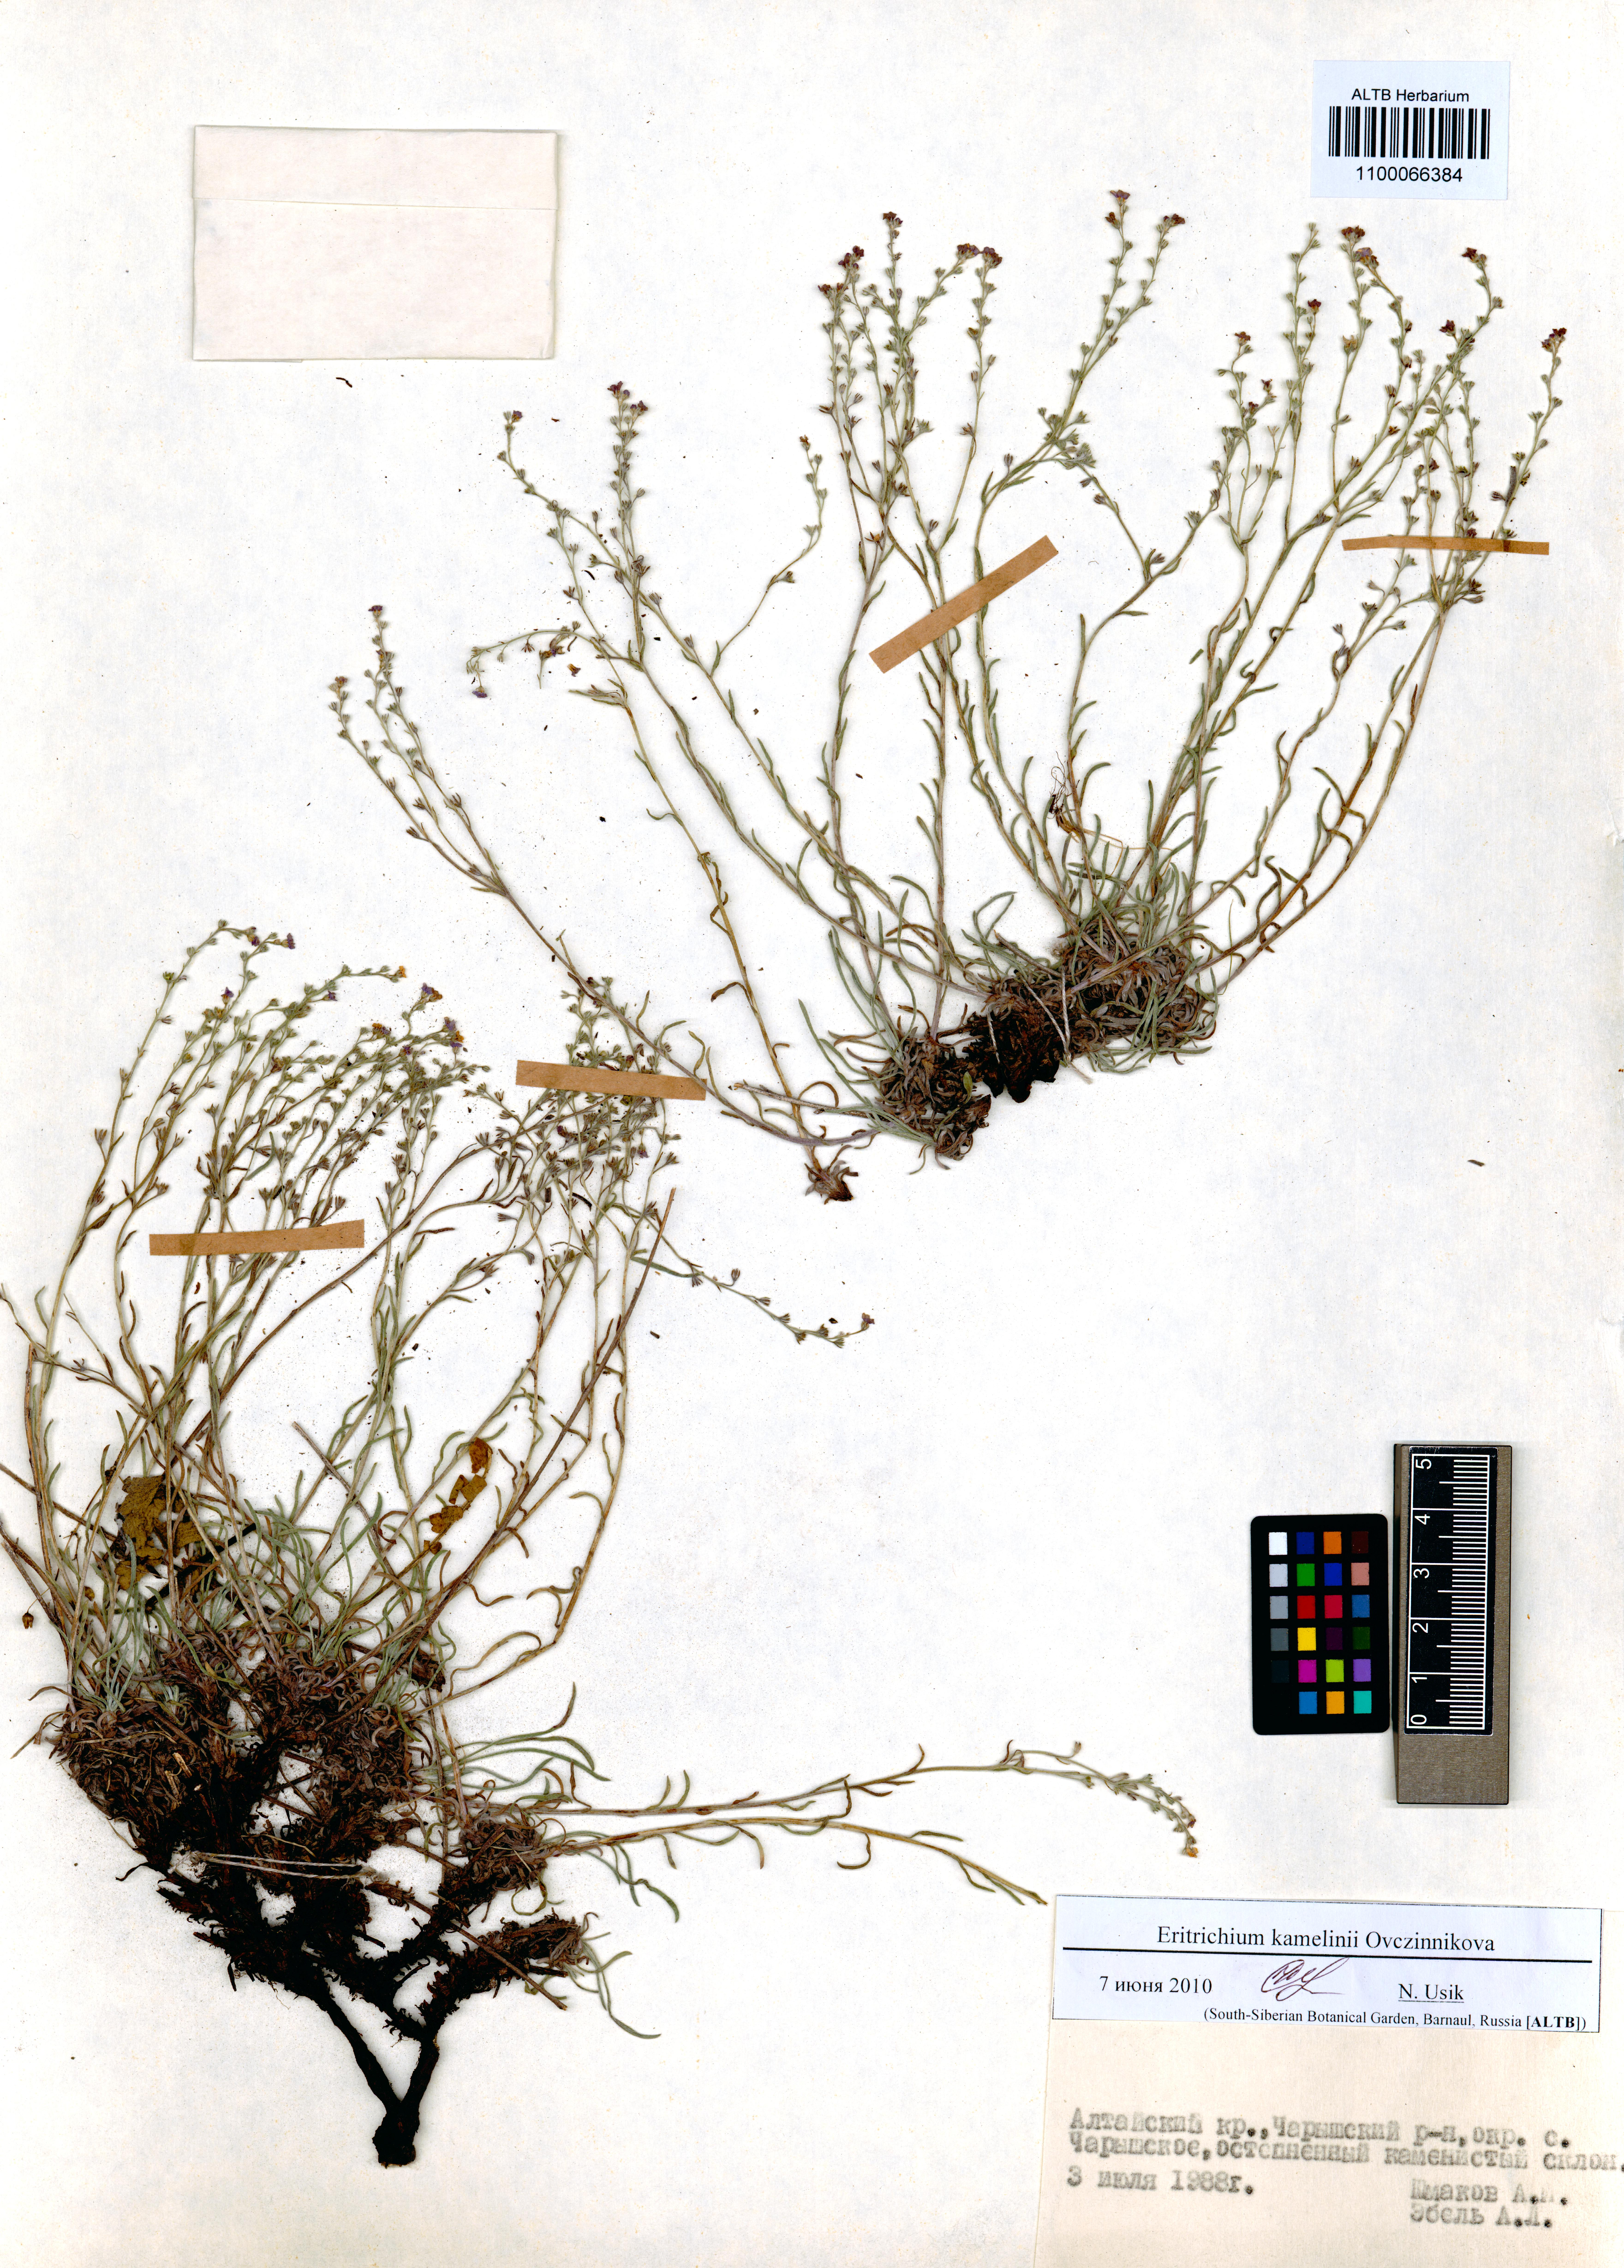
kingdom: Plantae
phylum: Tracheophyta
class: Magnoliopsida
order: Boraginales
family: Boraginaceae
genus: Eritrichium
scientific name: Eritrichium kamelinii
